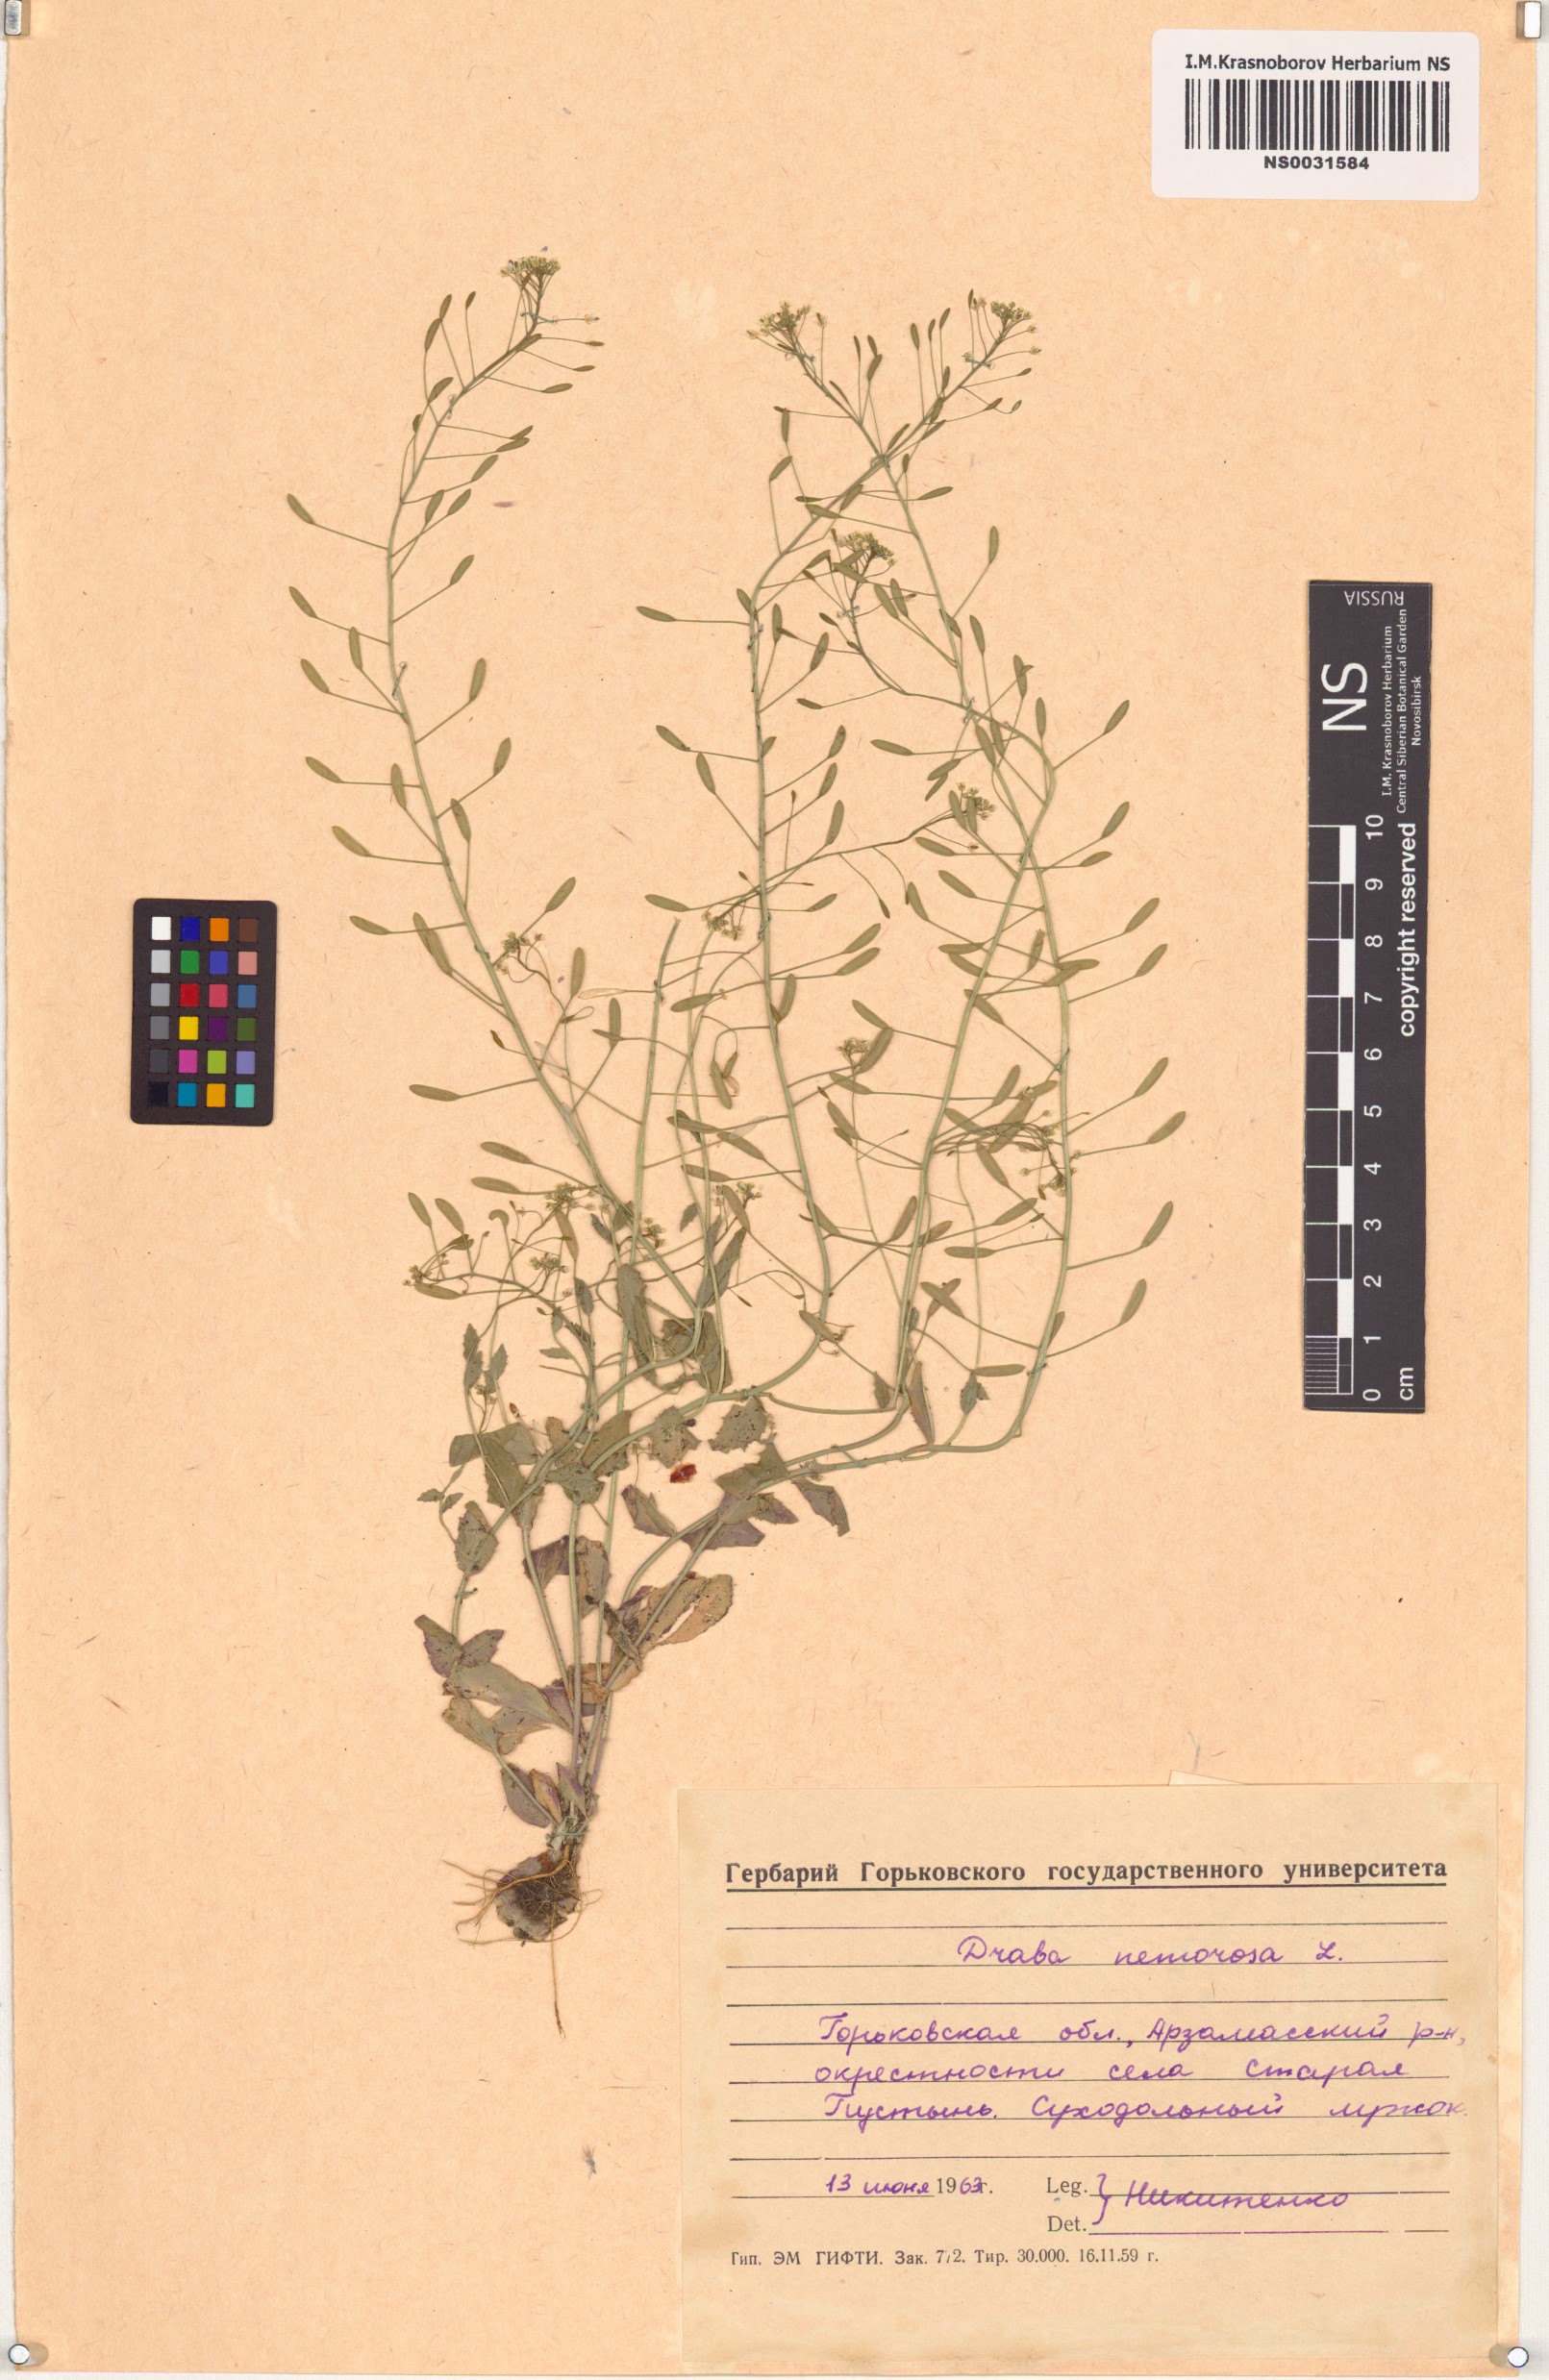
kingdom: Plantae
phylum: Tracheophyta
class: Magnoliopsida
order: Brassicales
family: Brassicaceae
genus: Draba
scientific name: Draba nemorosa
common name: Wood whitlow-grass
